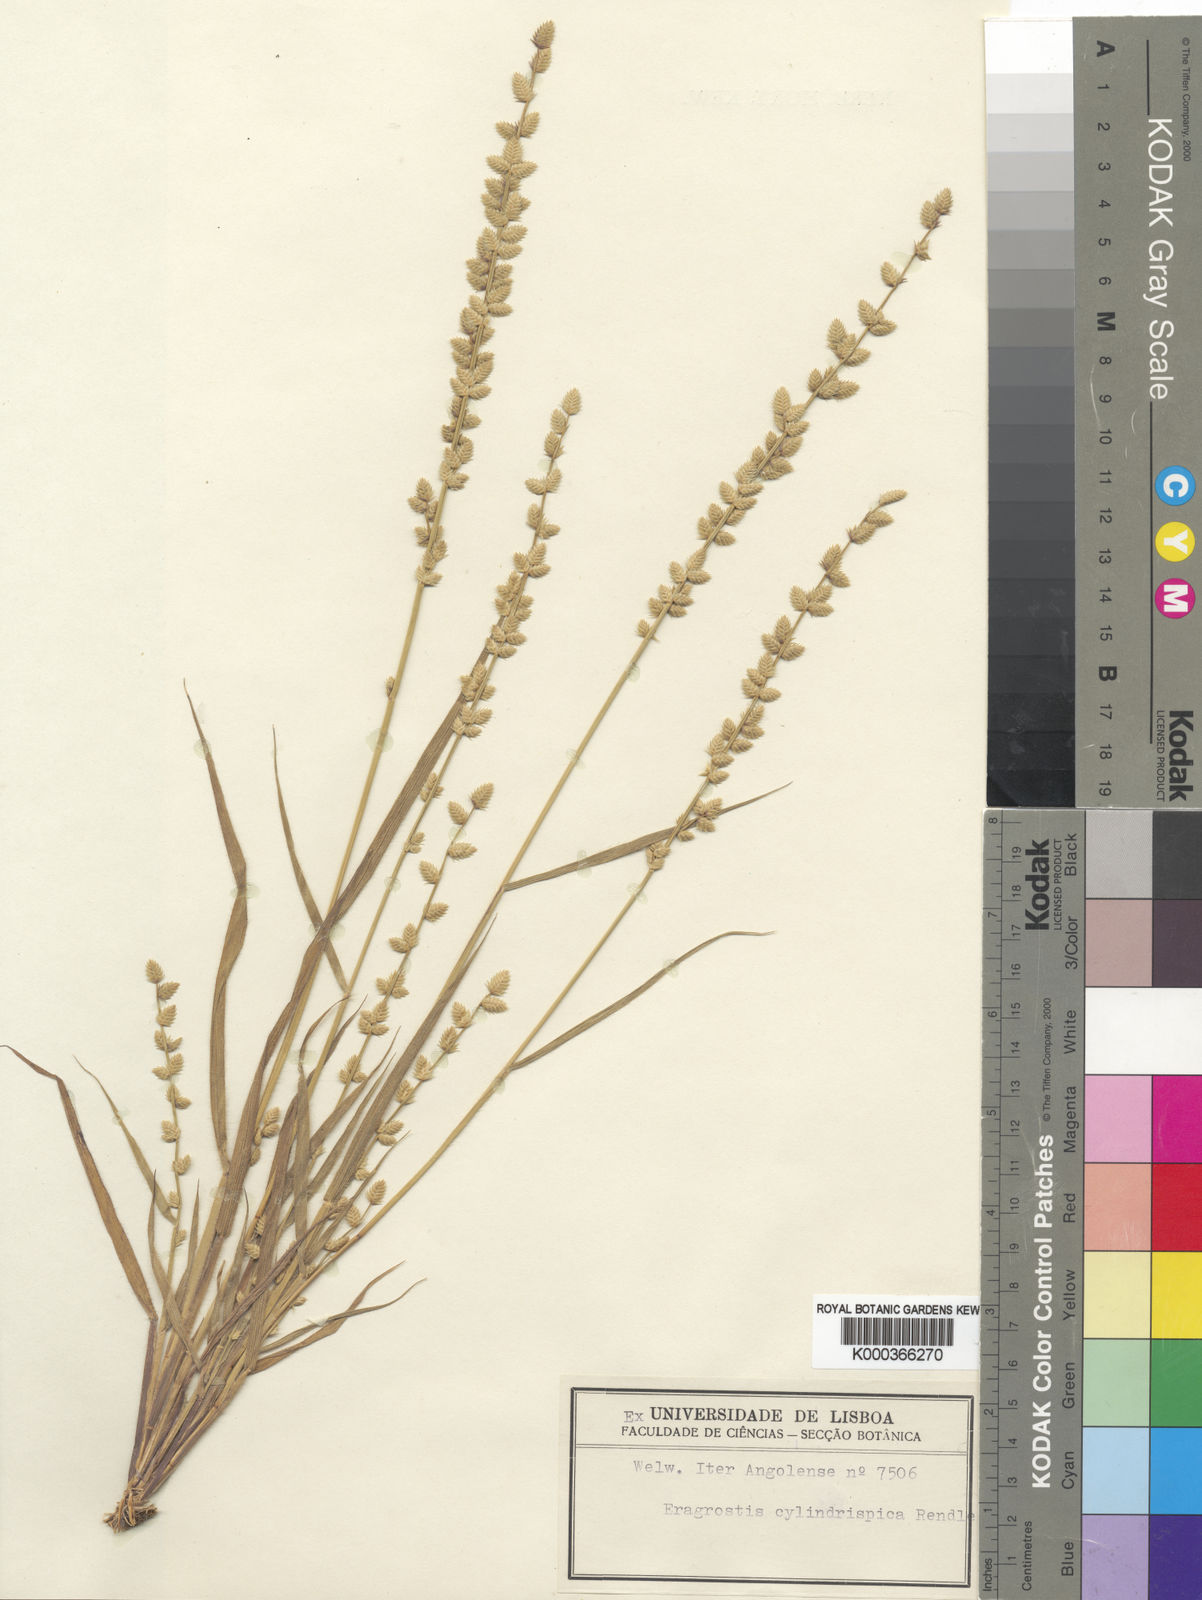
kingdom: Plantae
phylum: Tracheophyta
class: Liliopsida
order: Poales
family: Poaceae
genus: Eragrostis
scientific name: Eragrostis flavicans
